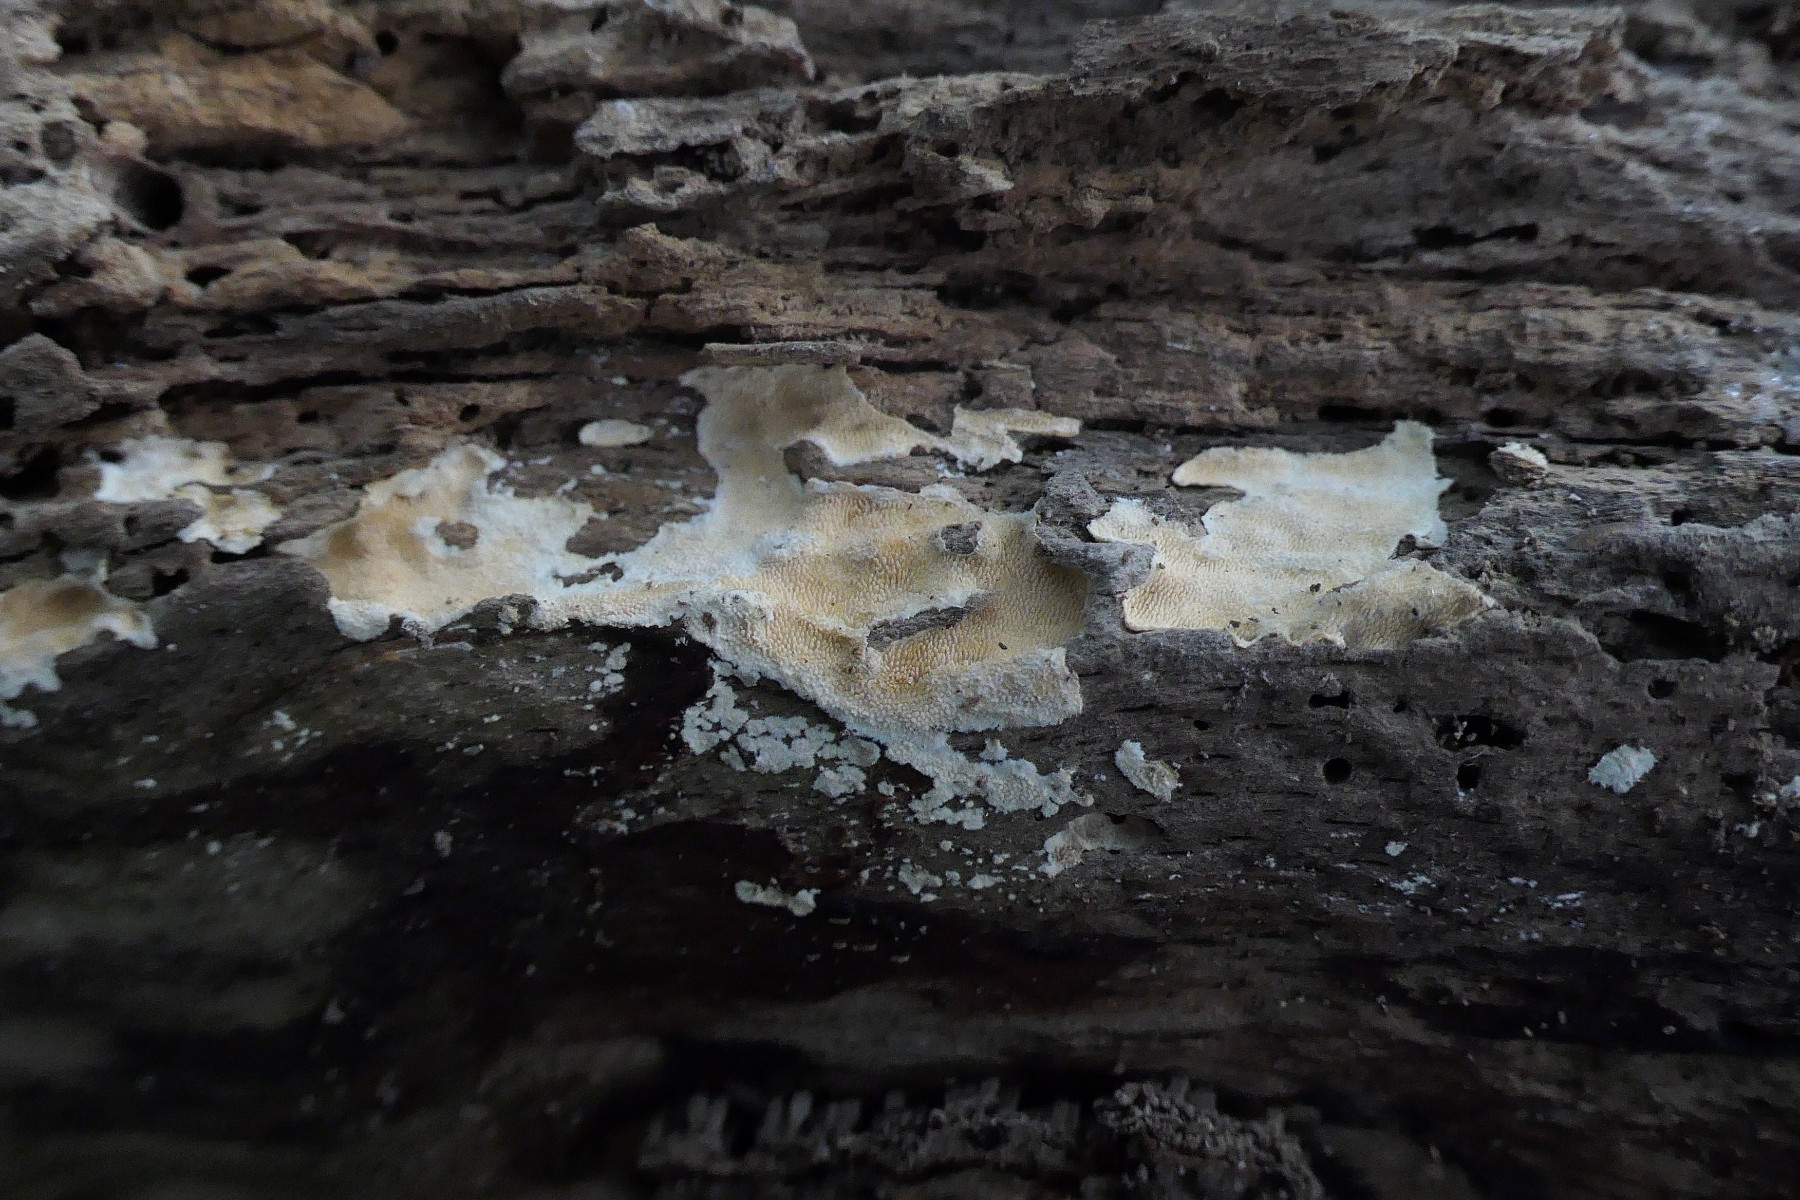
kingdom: Fungi
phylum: Basidiomycota
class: Agaricomycetes
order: Polyporales
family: Steccherinaceae
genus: Steccherinum
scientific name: Steccherinum ochraceum
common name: almindelig skønpig
